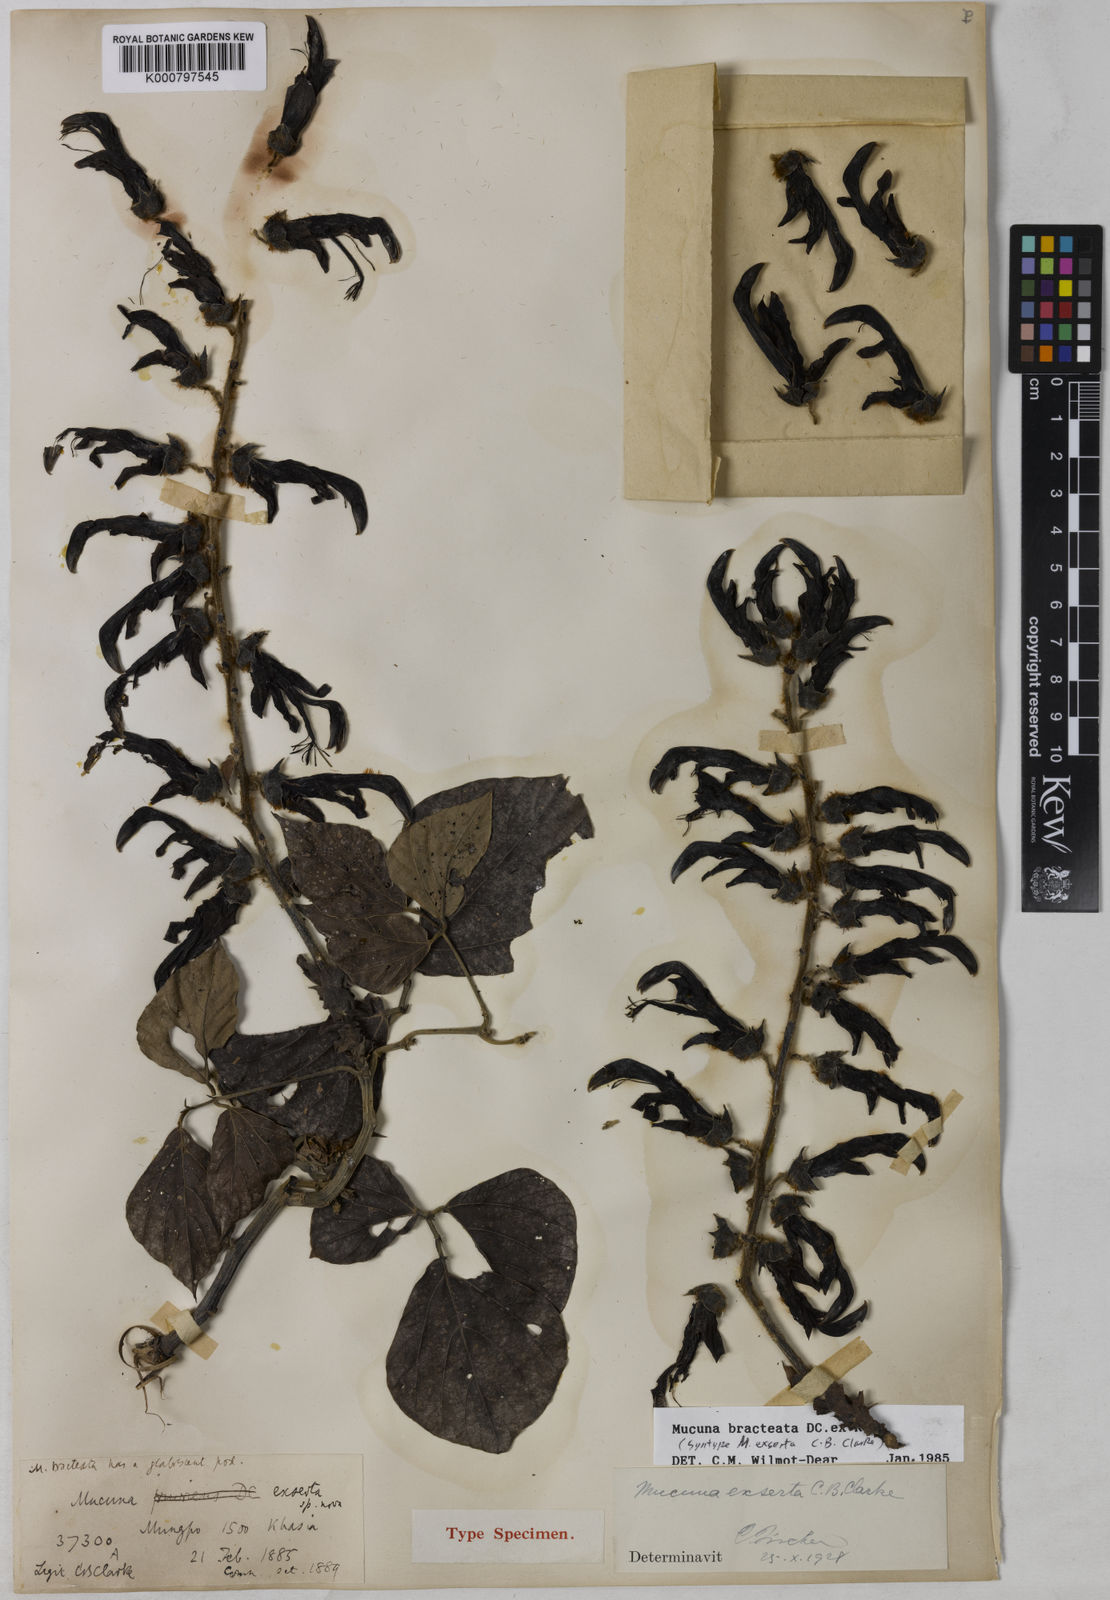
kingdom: Plantae
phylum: Tracheophyta
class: Magnoliopsida
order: Fabales
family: Fabaceae
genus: Mucuna
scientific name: Mucuna bracteata
